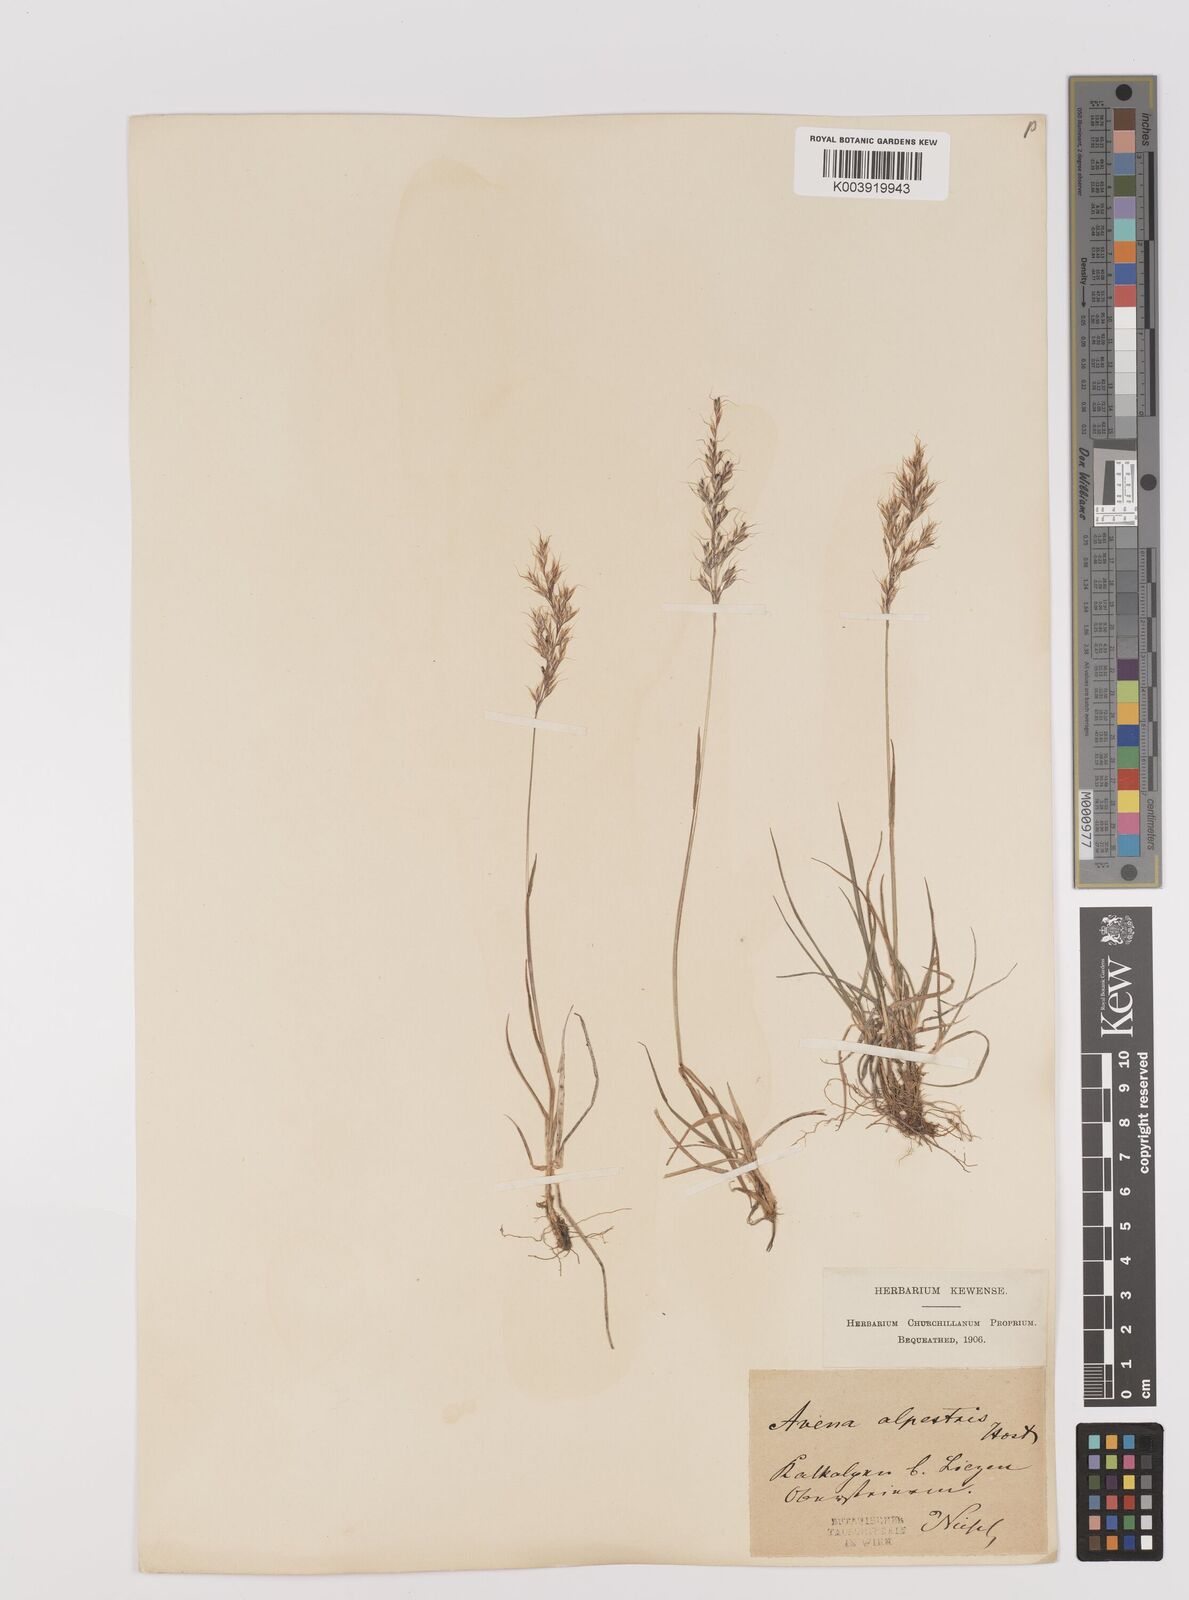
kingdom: Plantae
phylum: Tracheophyta
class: Liliopsida
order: Poales
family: Poaceae
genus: Trisetum
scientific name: Trisetum alpestre
